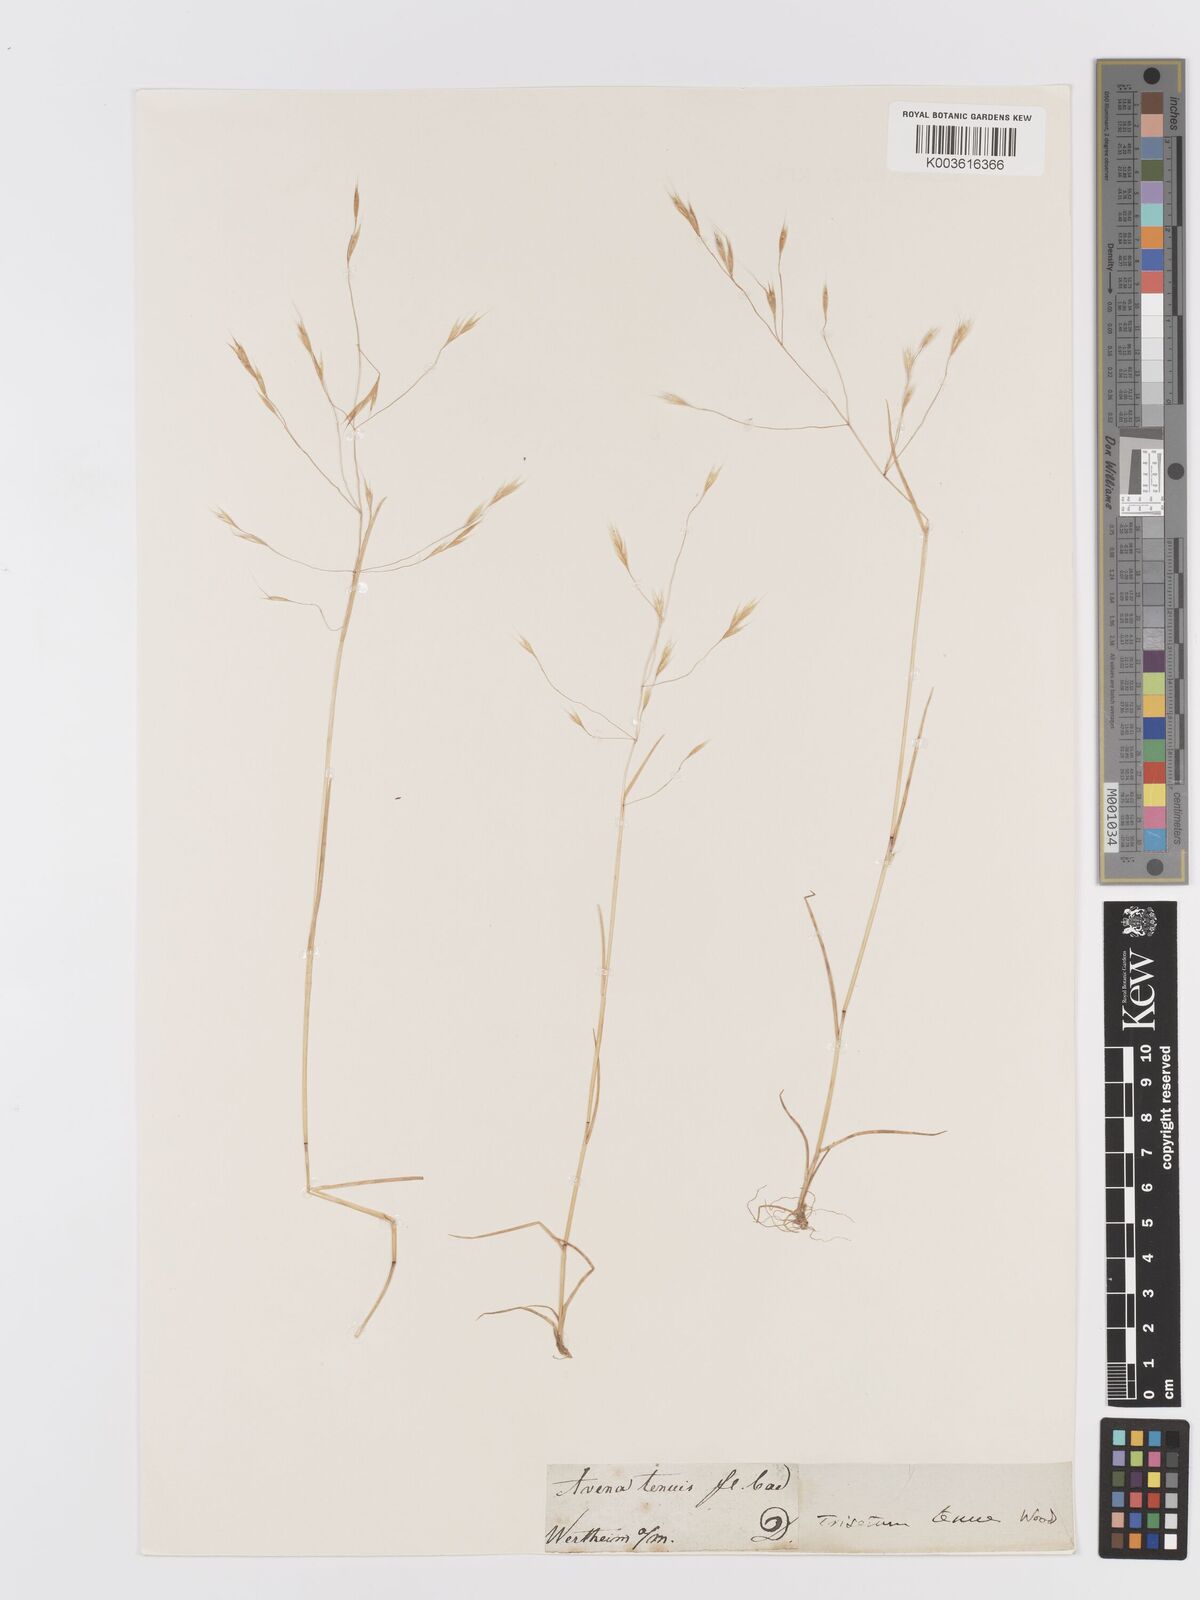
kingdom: Plantae
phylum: Tracheophyta
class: Liliopsida
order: Poales
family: Poaceae
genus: Ventenata
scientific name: Ventenata dubia
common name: North africa grass
